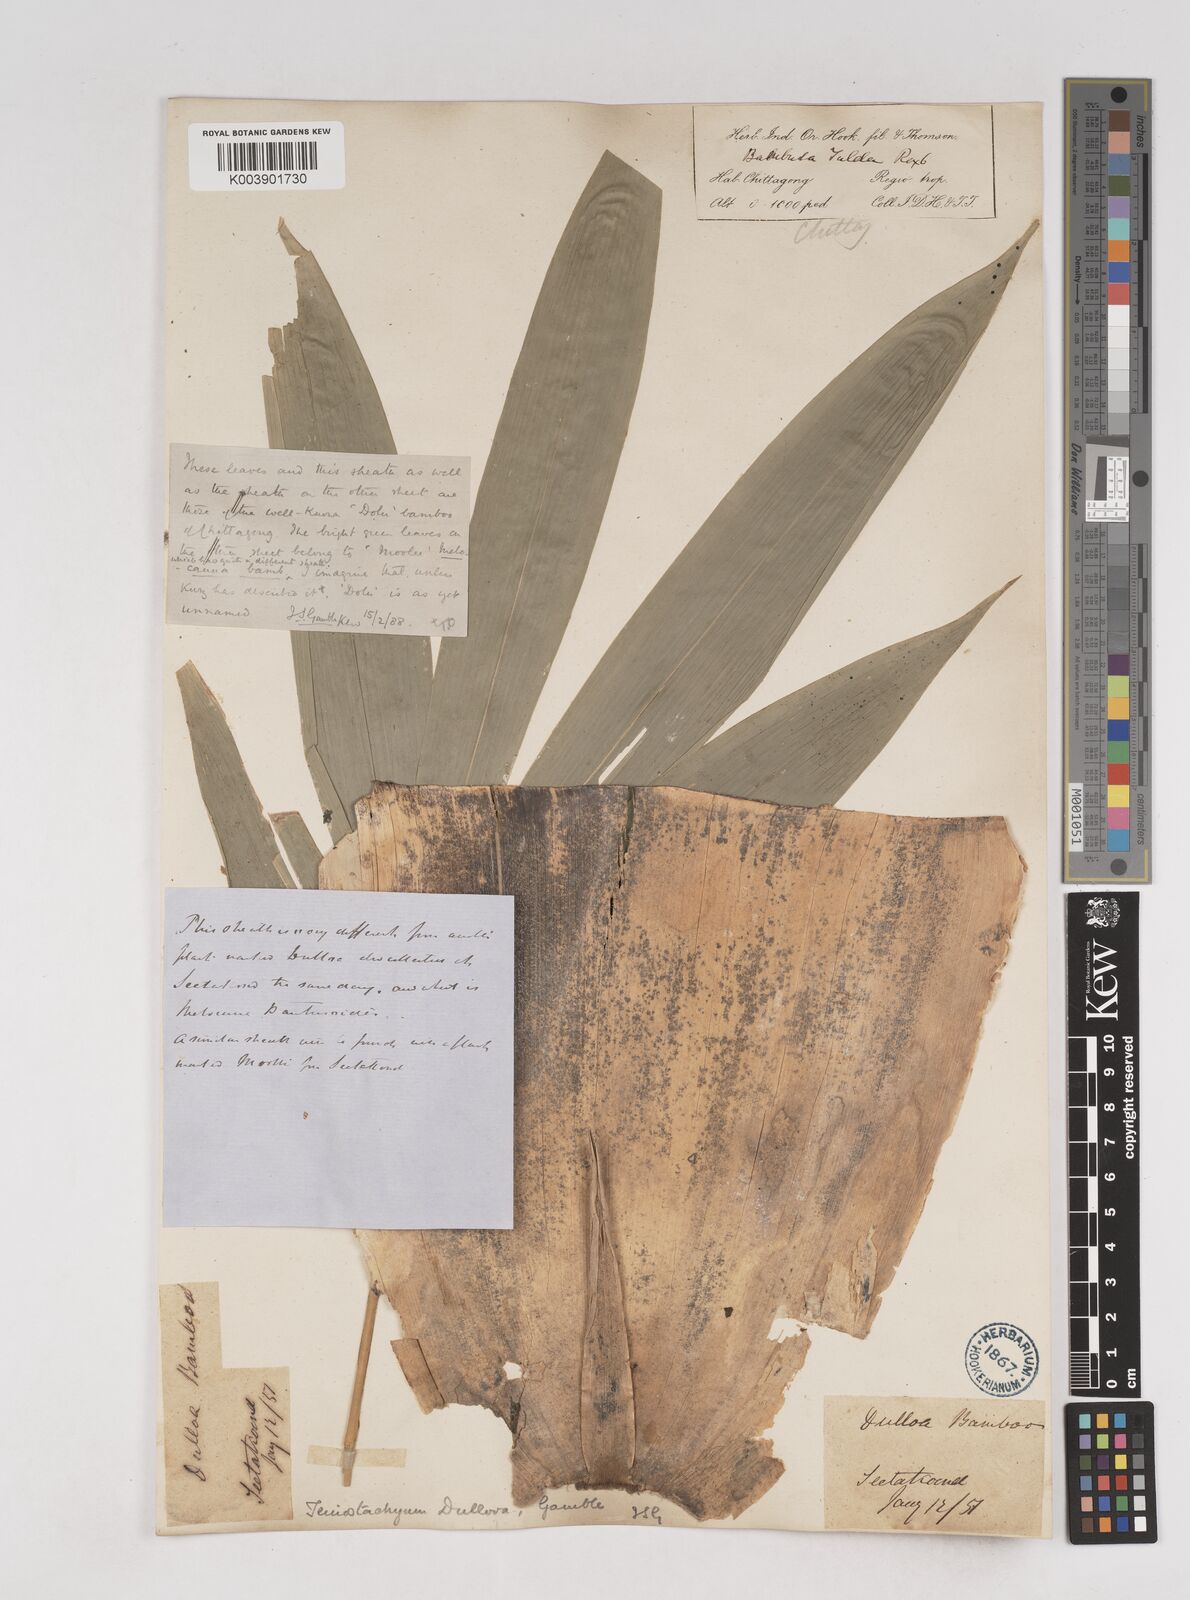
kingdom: Plantae
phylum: Tracheophyta
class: Liliopsida
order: Poales
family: Poaceae
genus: Schizostachyum
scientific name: Schizostachyum dullooa
